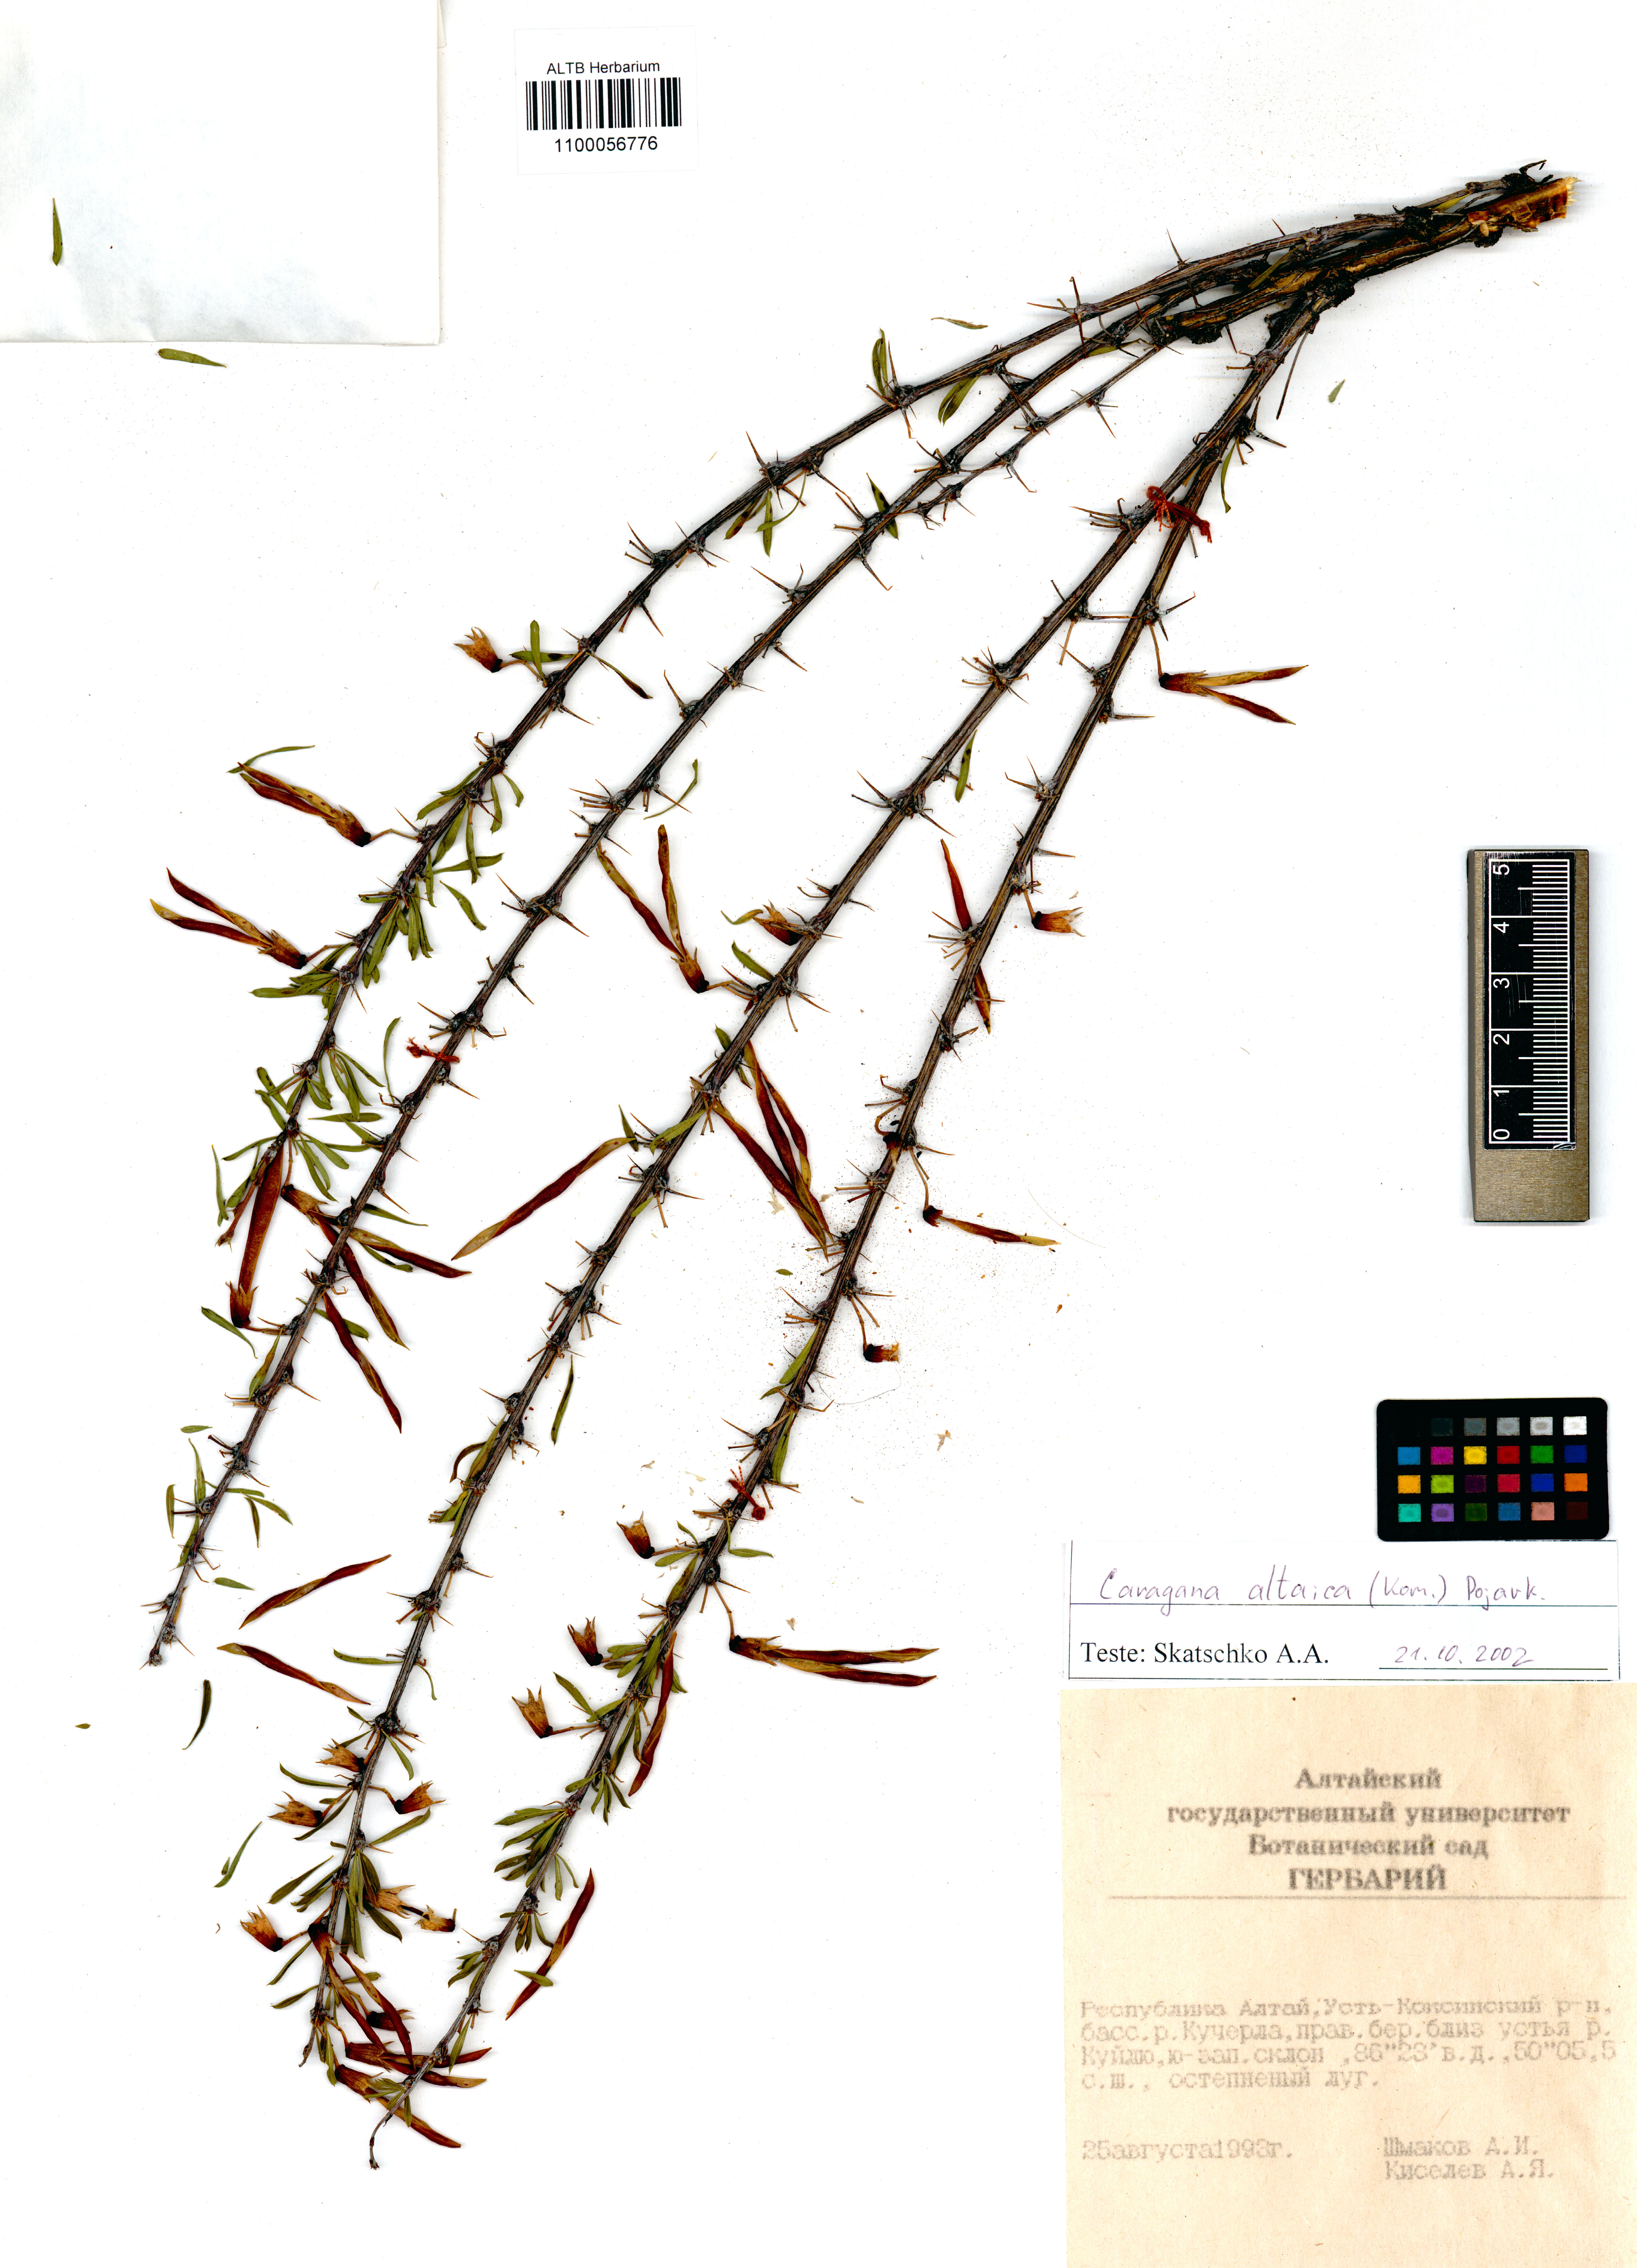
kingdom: Plantae
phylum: Tracheophyta
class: Magnoliopsida
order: Fabales
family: Fabaceae
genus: Caragana
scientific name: Caragana pygmaea
